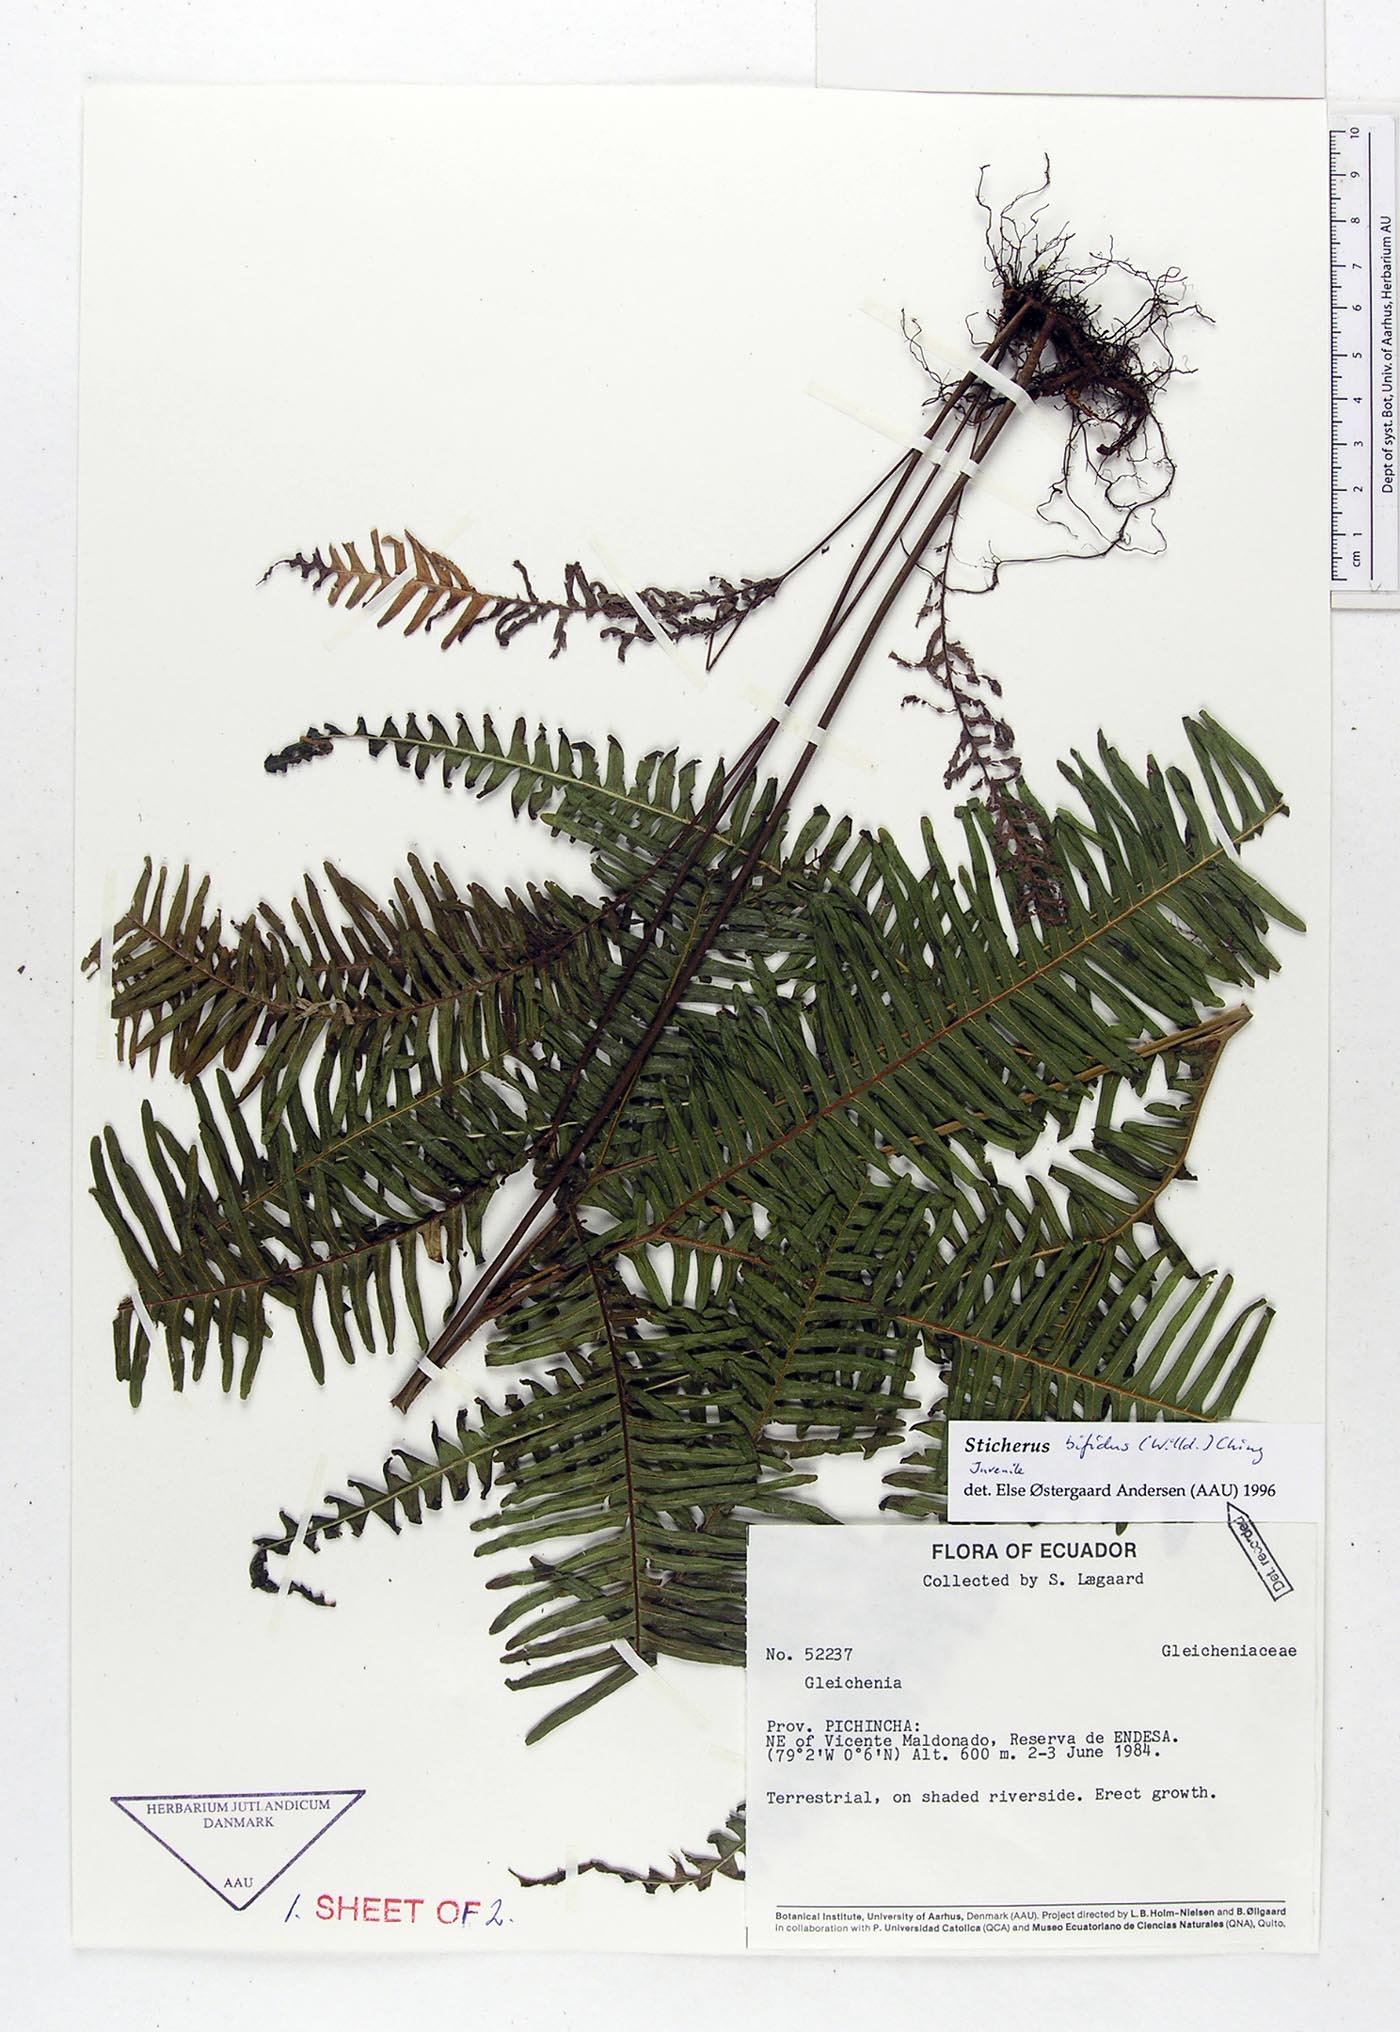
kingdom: Plantae
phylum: Tracheophyta
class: Polypodiopsida
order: Gleicheniales
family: Gleicheniaceae
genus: Sticherus
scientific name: Sticherus bifidus
